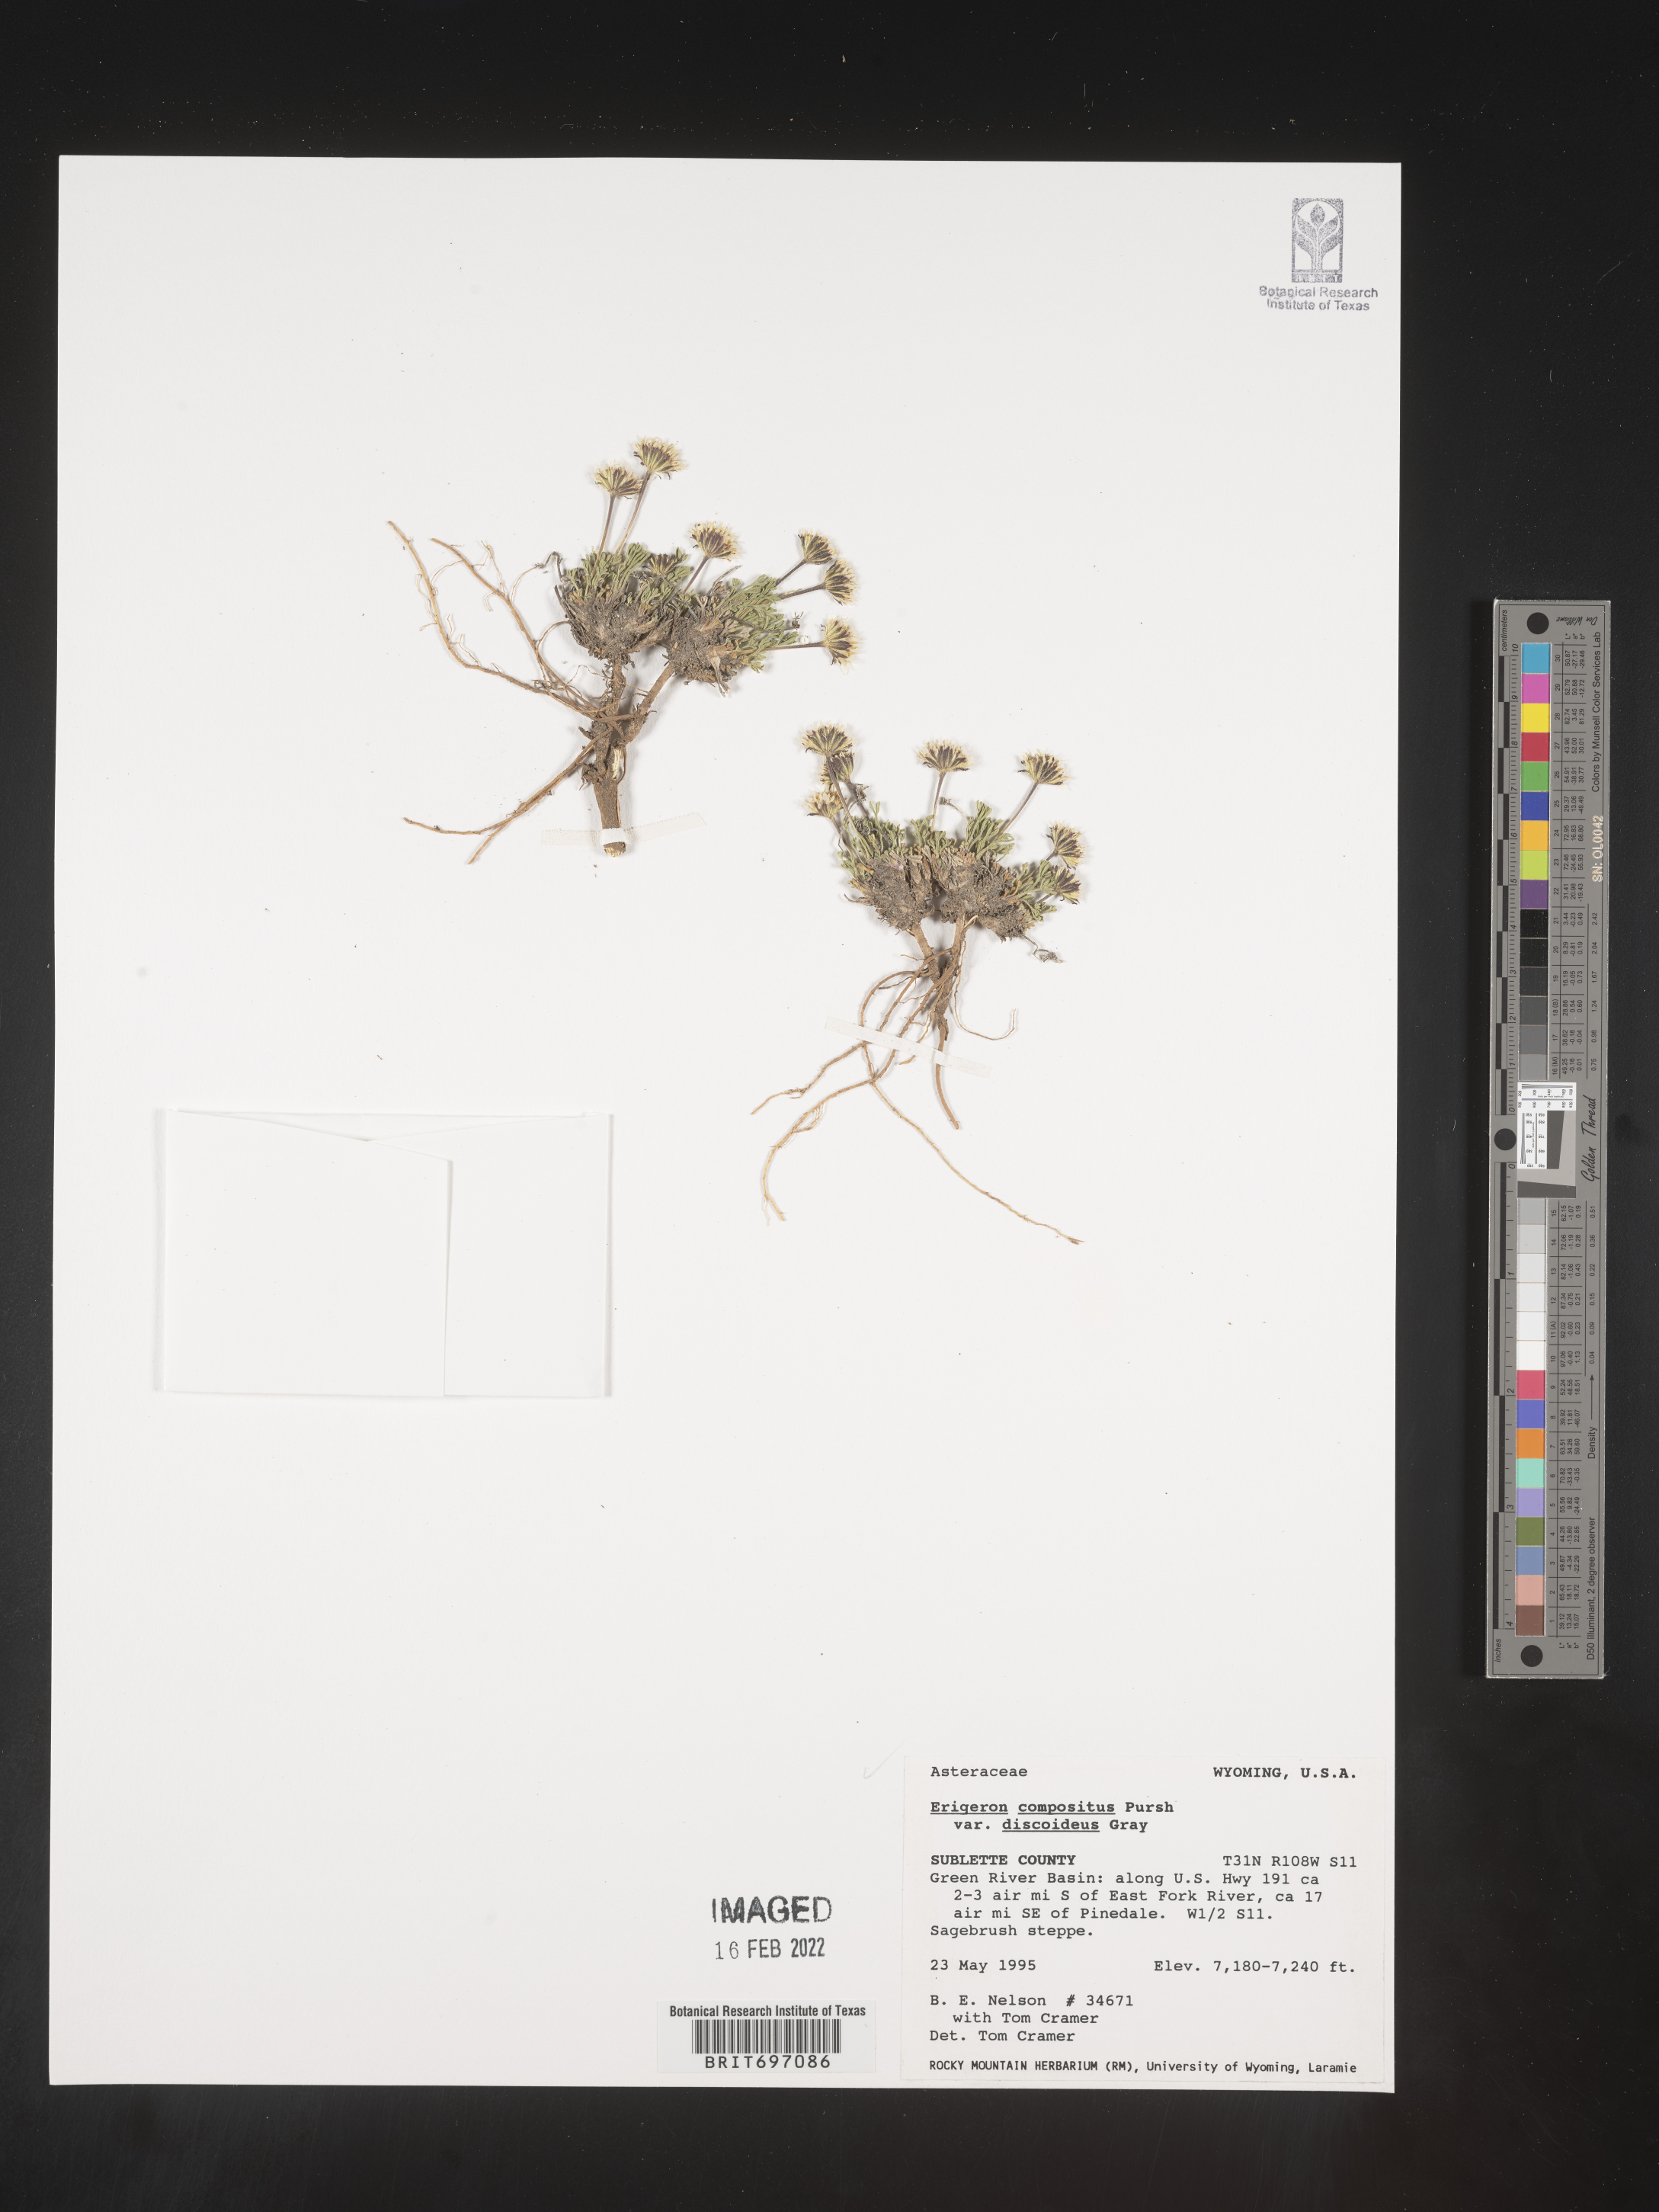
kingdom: Plantae
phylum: Tracheophyta
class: Magnoliopsida
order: Asterales
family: Asteraceae
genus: Erigeron
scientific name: Erigeron compositus
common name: Dwarf mountain fleabane
